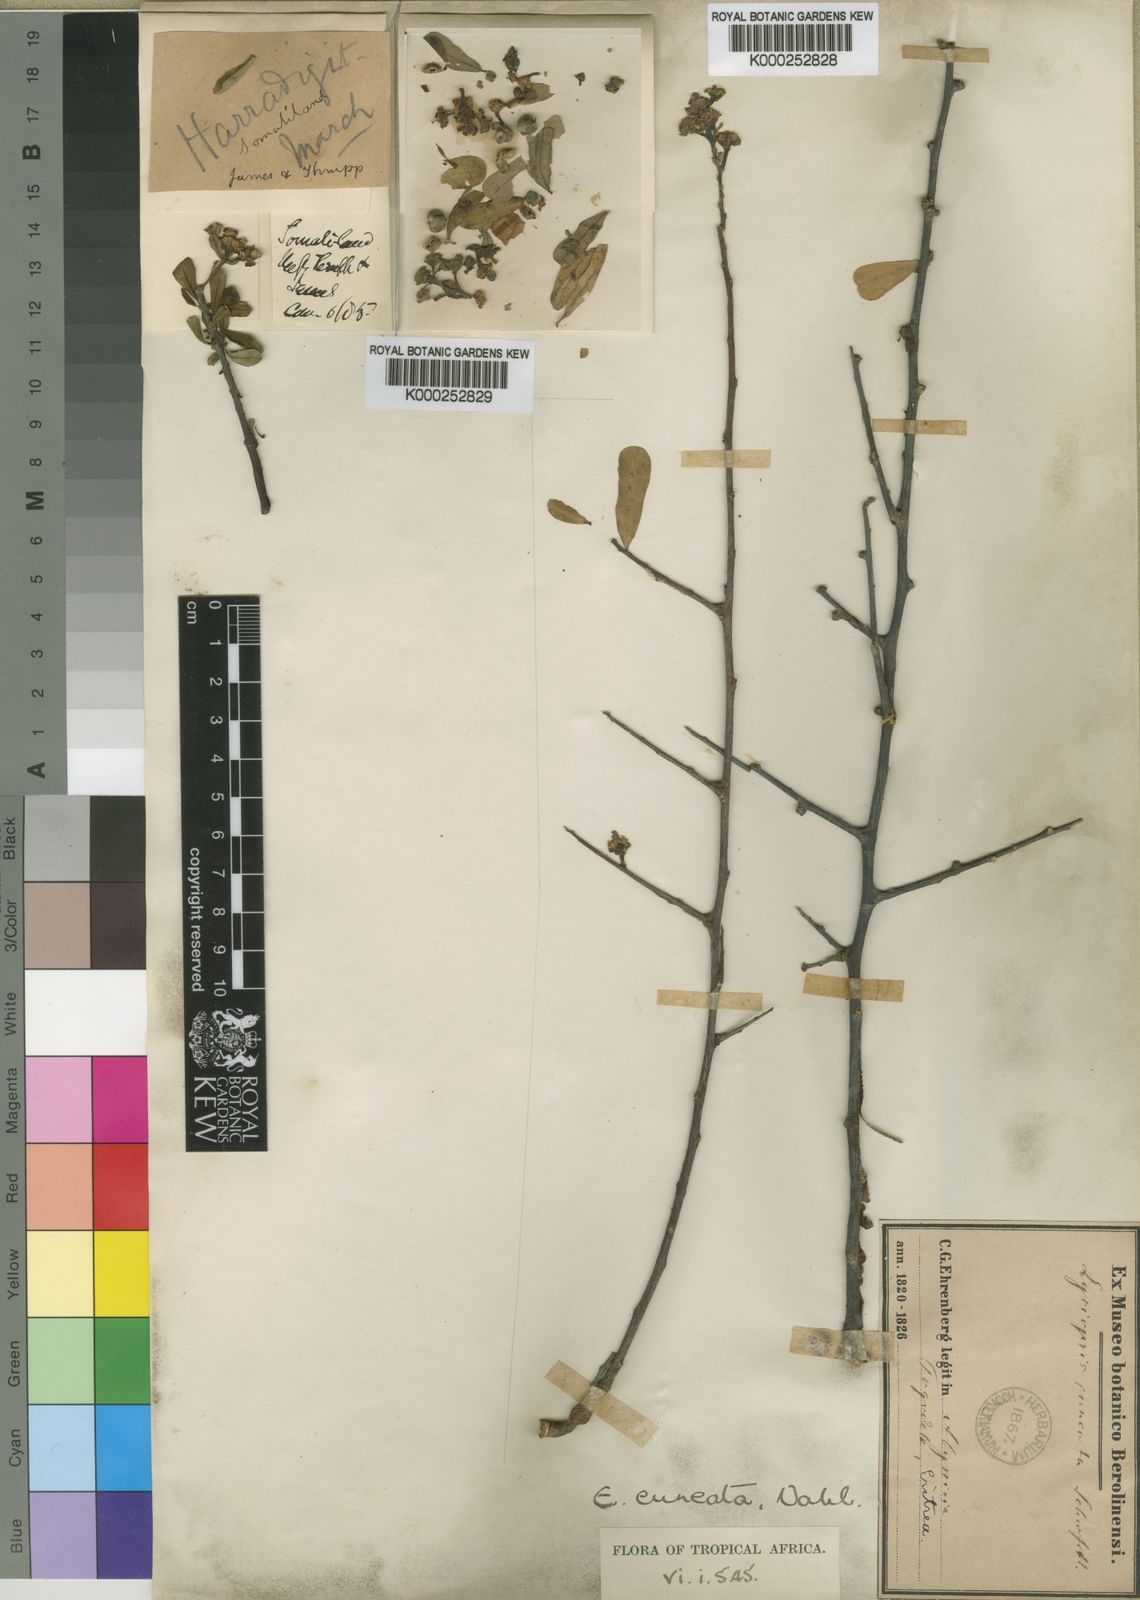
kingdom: Plantae
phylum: Tracheophyta
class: Magnoliopsida
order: Malpighiales
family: Euphorbiaceae
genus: Euphorbia
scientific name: Euphorbia cuneata
